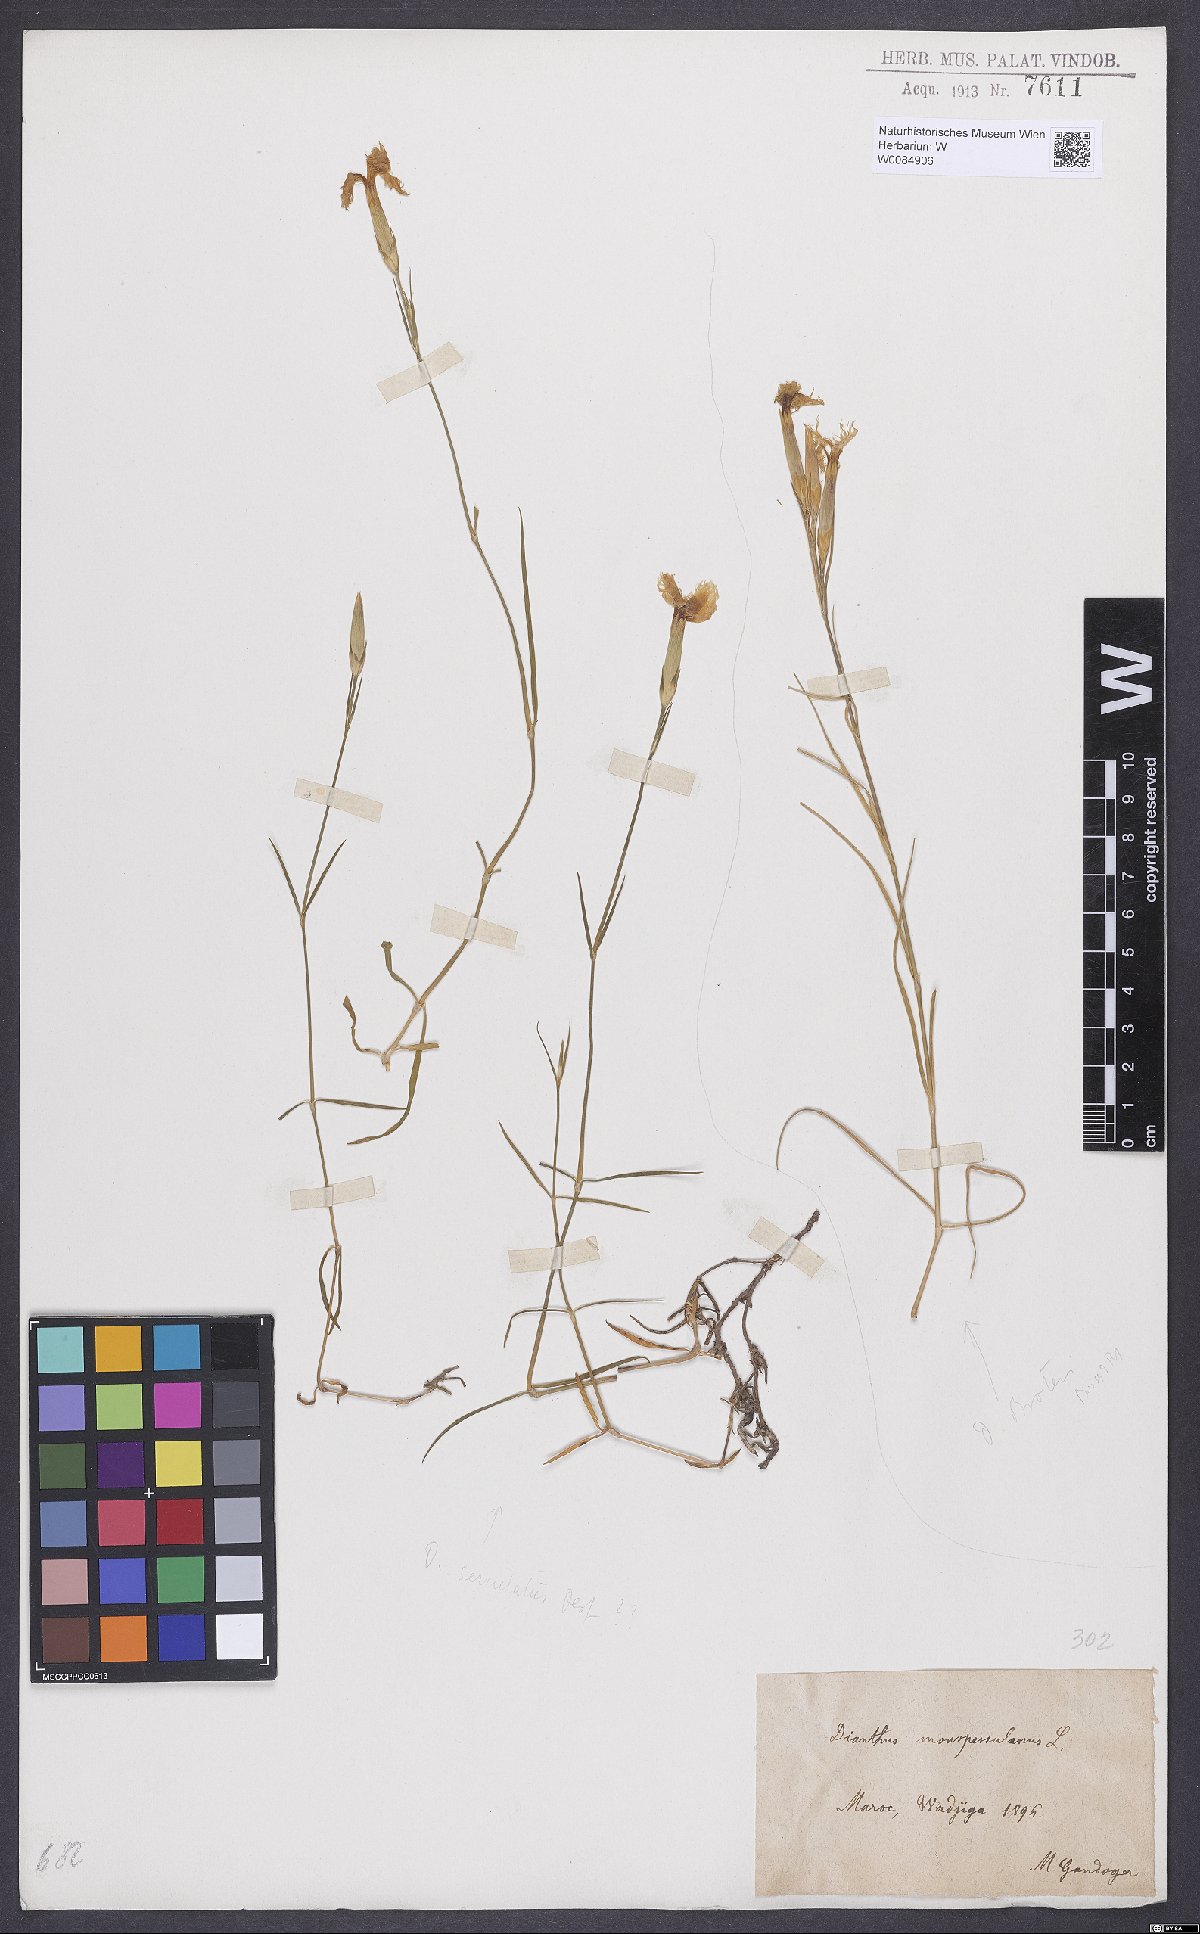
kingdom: Plantae
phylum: Tracheophyta
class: Magnoliopsida
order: Caryophyllales
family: Caryophyllaceae
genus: Dianthus
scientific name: Dianthus hyssopifolius
